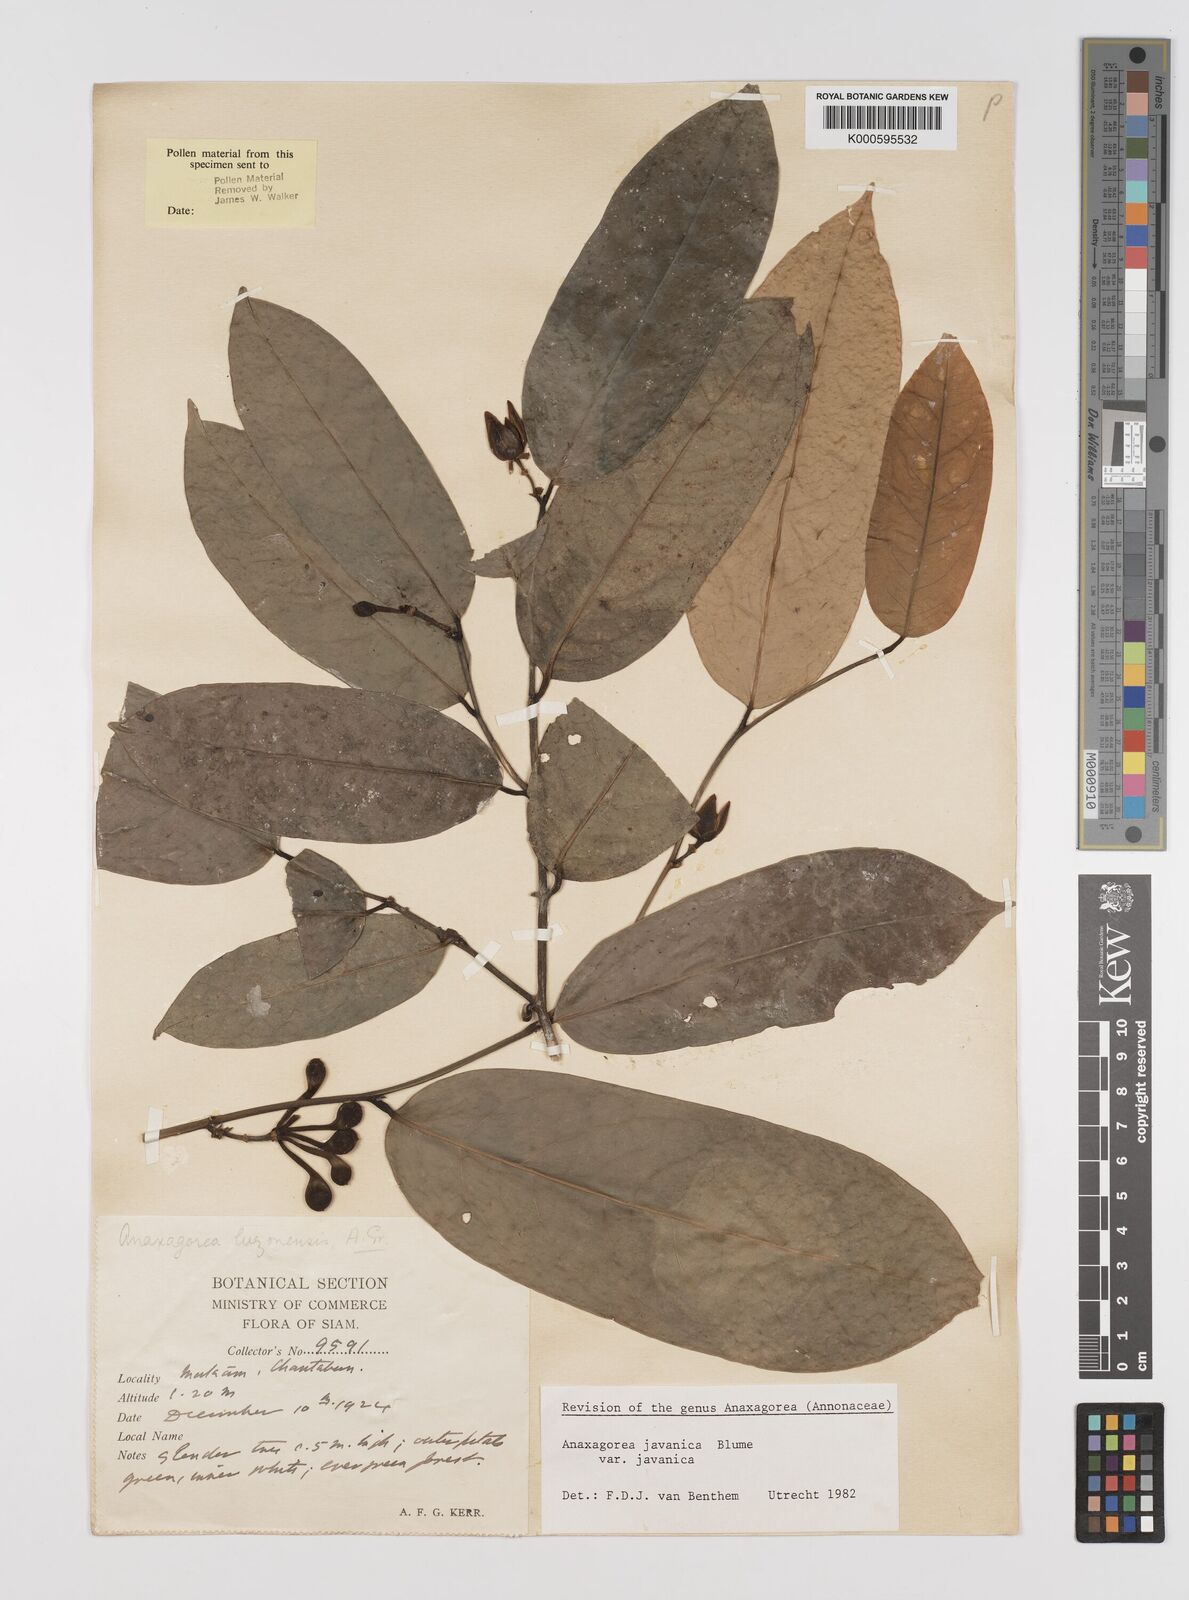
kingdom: Plantae
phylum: Tracheophyta
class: Magnoliopsida
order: Magnoliales
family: Annonaceae
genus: Anaxagorea
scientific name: Anaxagorea javanica
